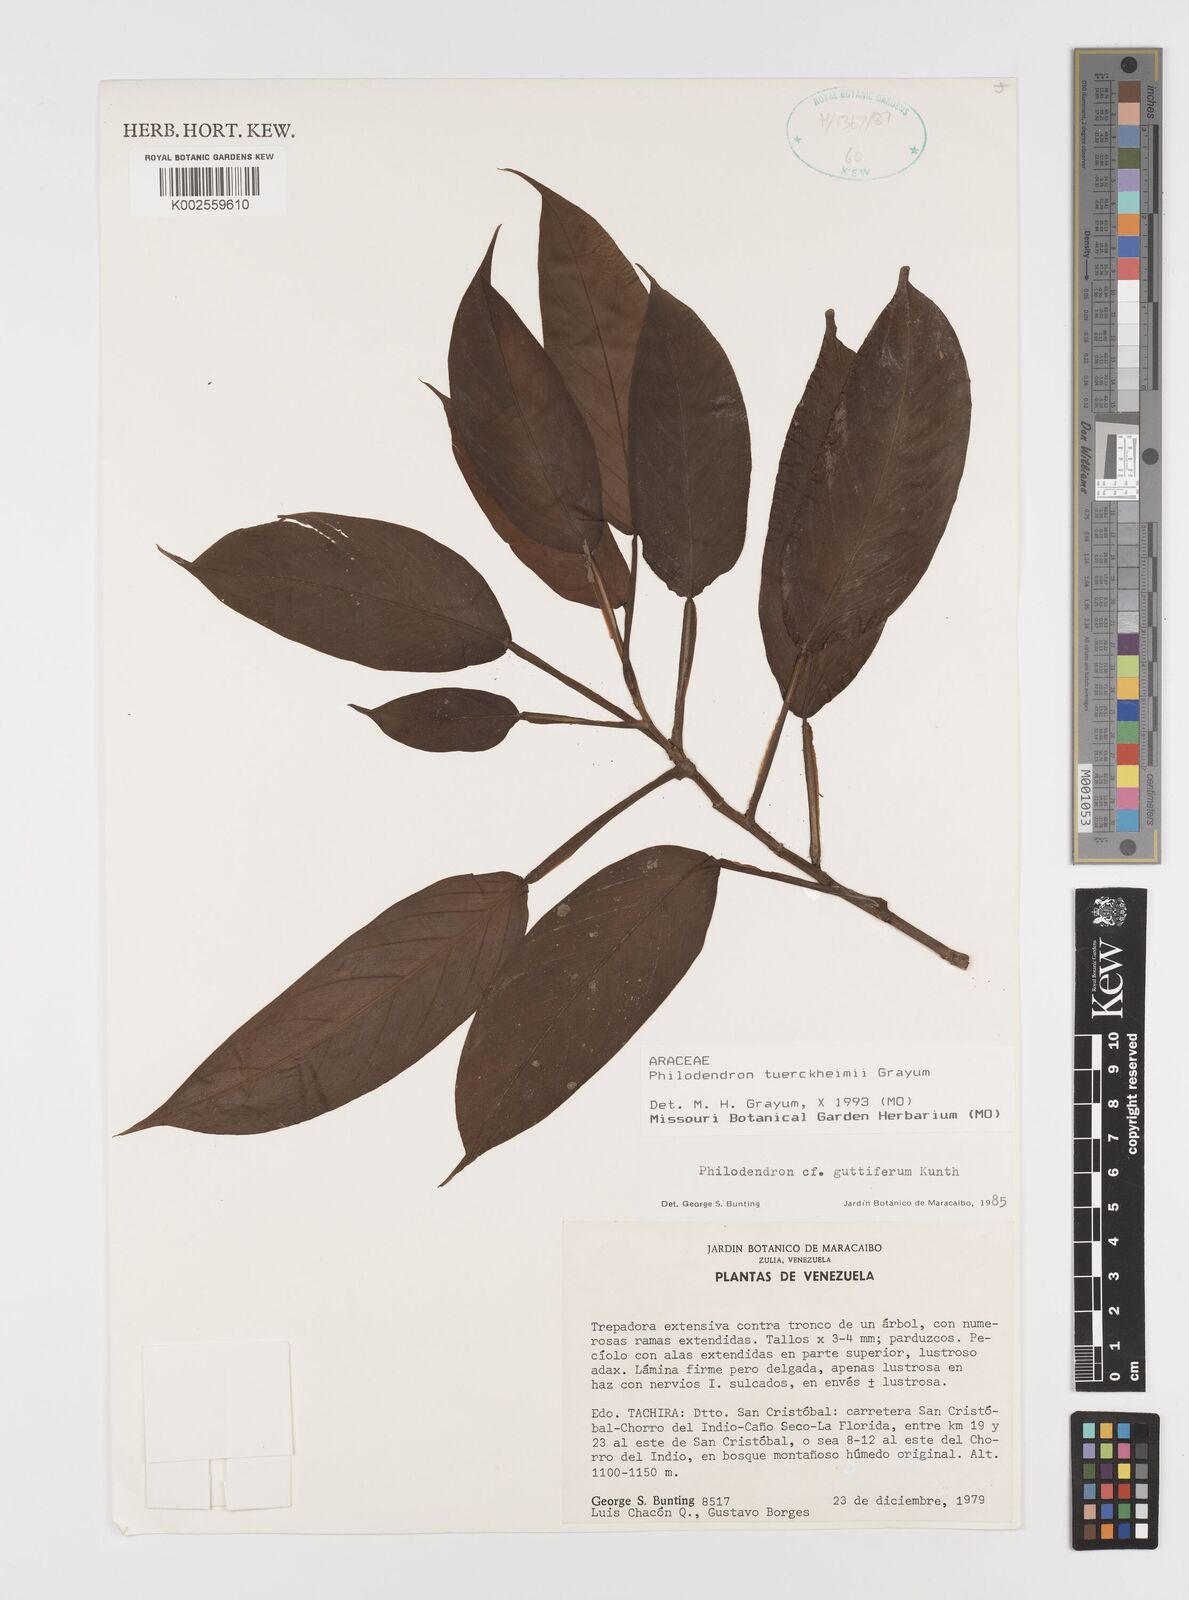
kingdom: Plantae
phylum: Tracheophyta
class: Liliopsida
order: Alismatales
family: Araceae
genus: Philodendron
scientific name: Philodendron tuerckheimii
